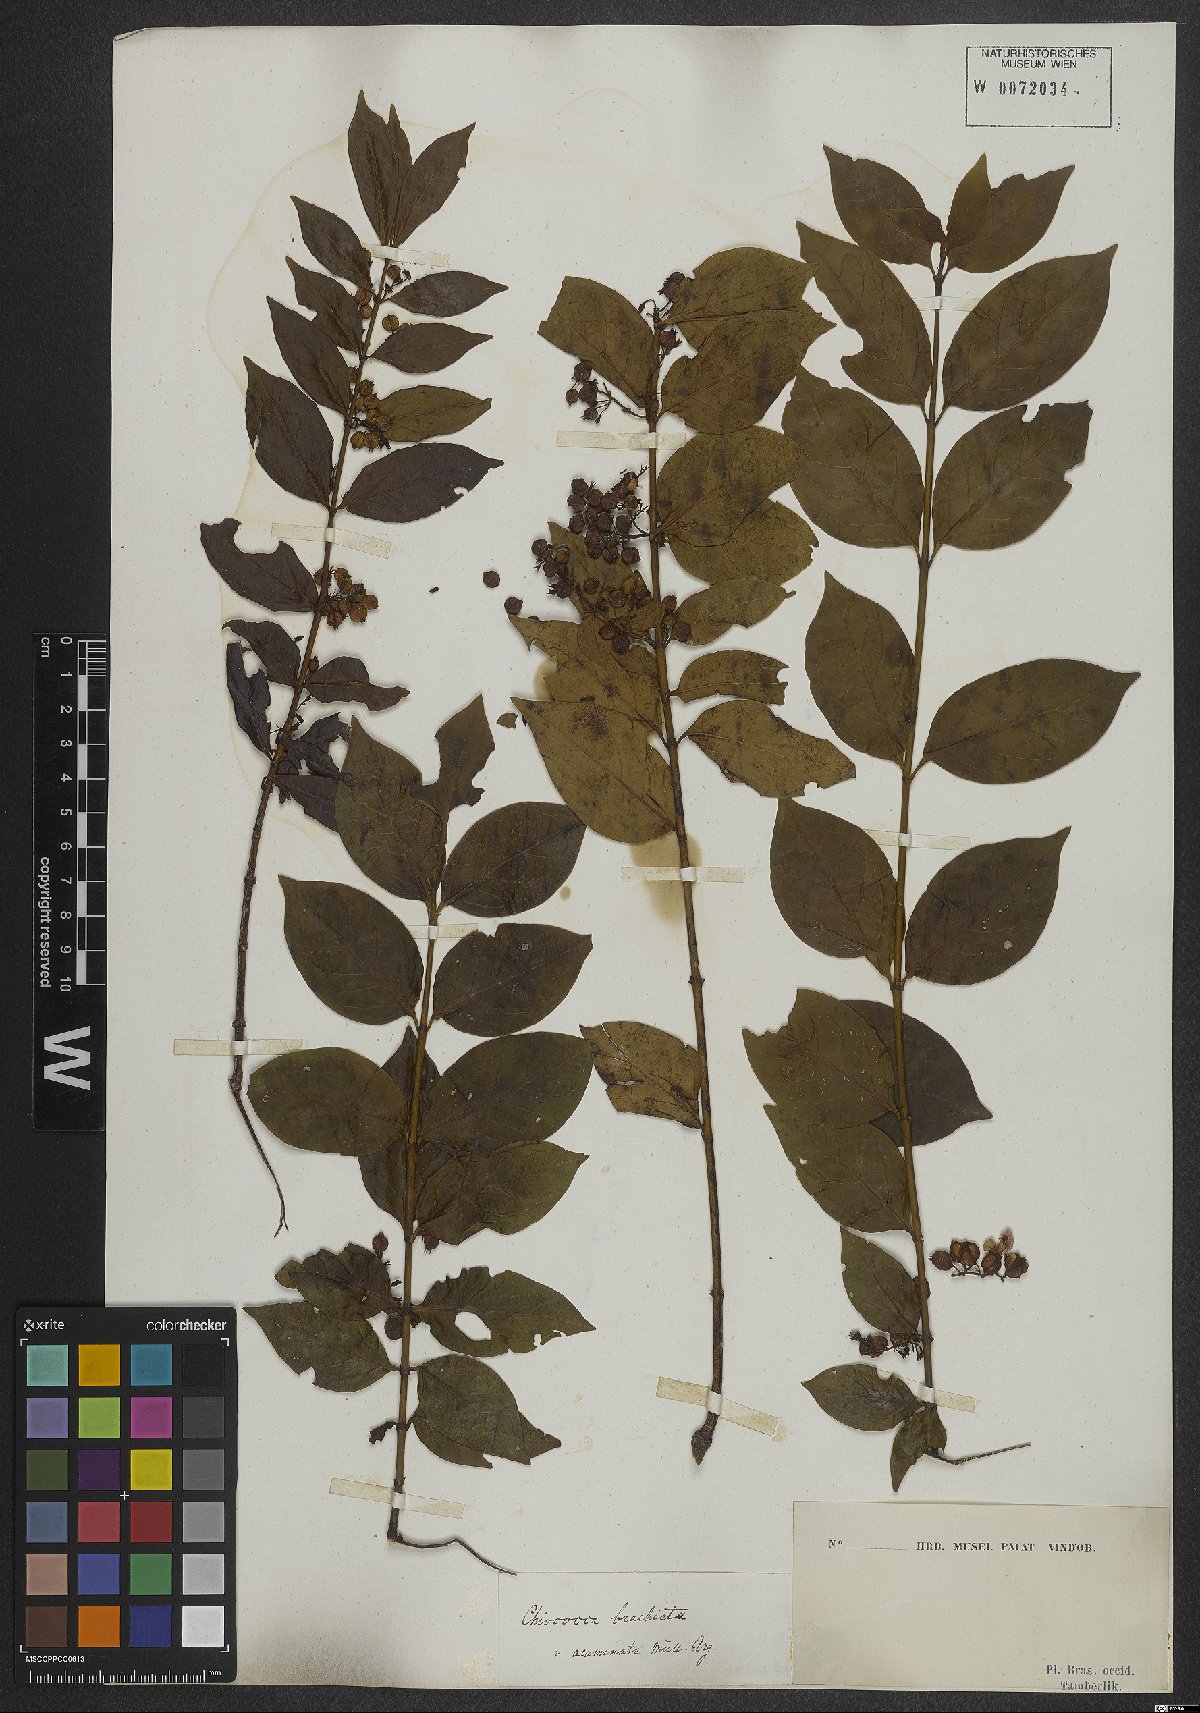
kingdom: Plantae
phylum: Tracheophyta
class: Magnoliopsida
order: Gentianales
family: Rubiaceae
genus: Chiococca
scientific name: Chiococca alba
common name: Snowberry
